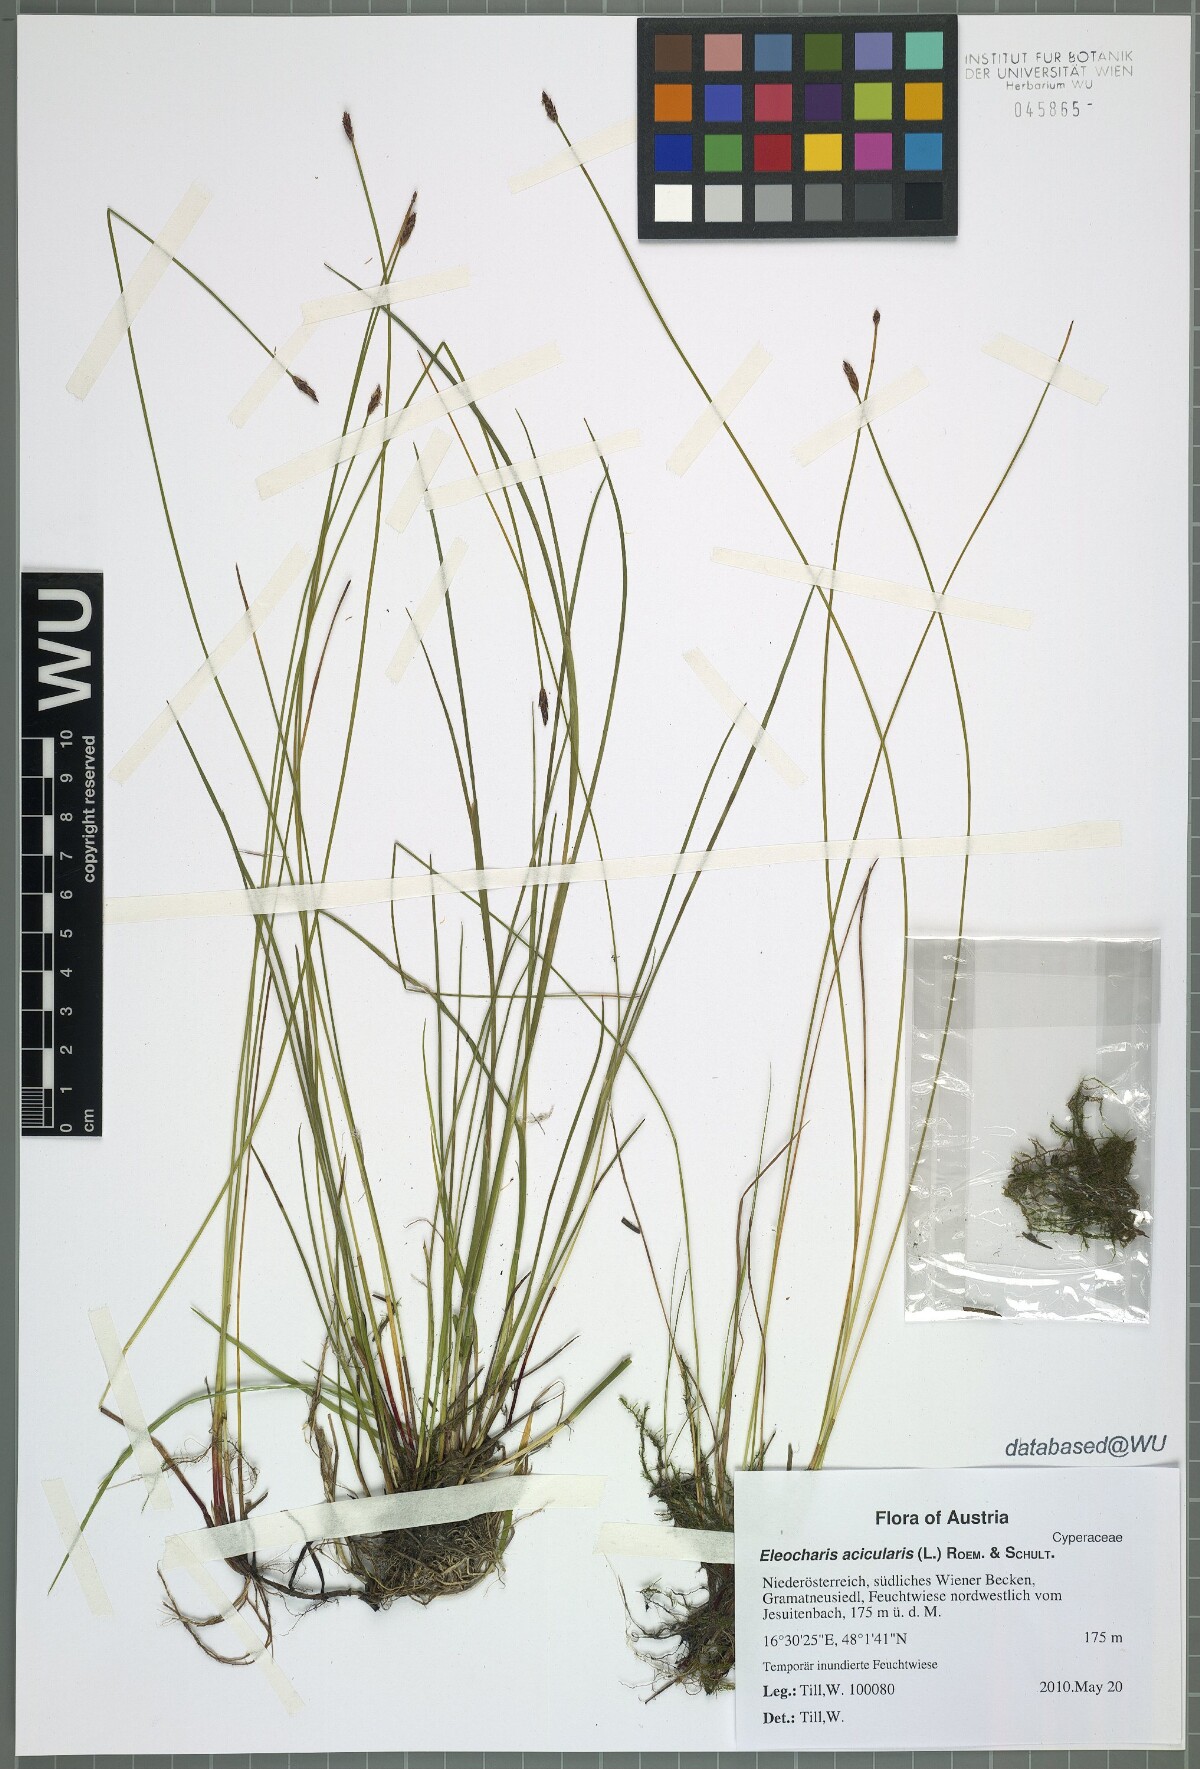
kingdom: Plantae
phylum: Tracheophyta
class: Liliopsida
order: Poales
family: Cyperaceae
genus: Eleocharis
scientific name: Eleocharis uniglumis
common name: Slender spike-rush
